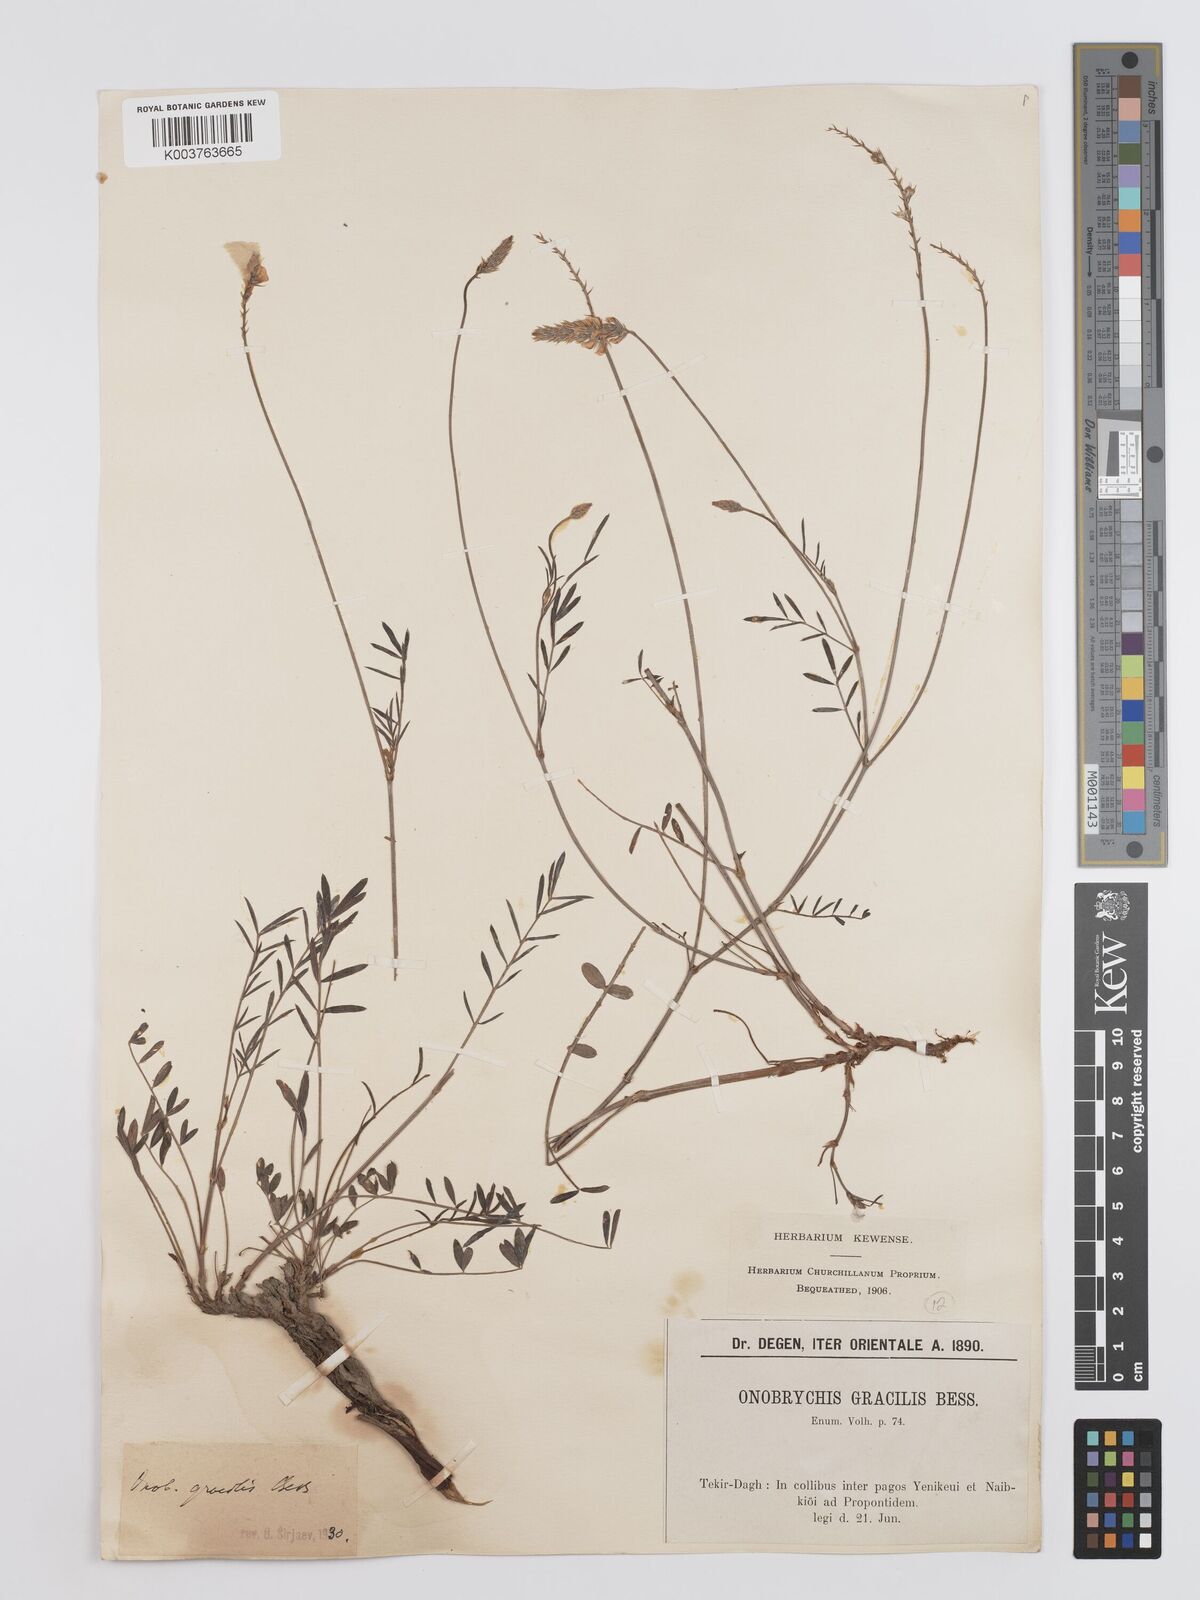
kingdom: Plantae
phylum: Tracheophyta
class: Magnoliopsida
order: Fabales
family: Fabaceae
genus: Onobrychis
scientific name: Onobrychis gracilis
